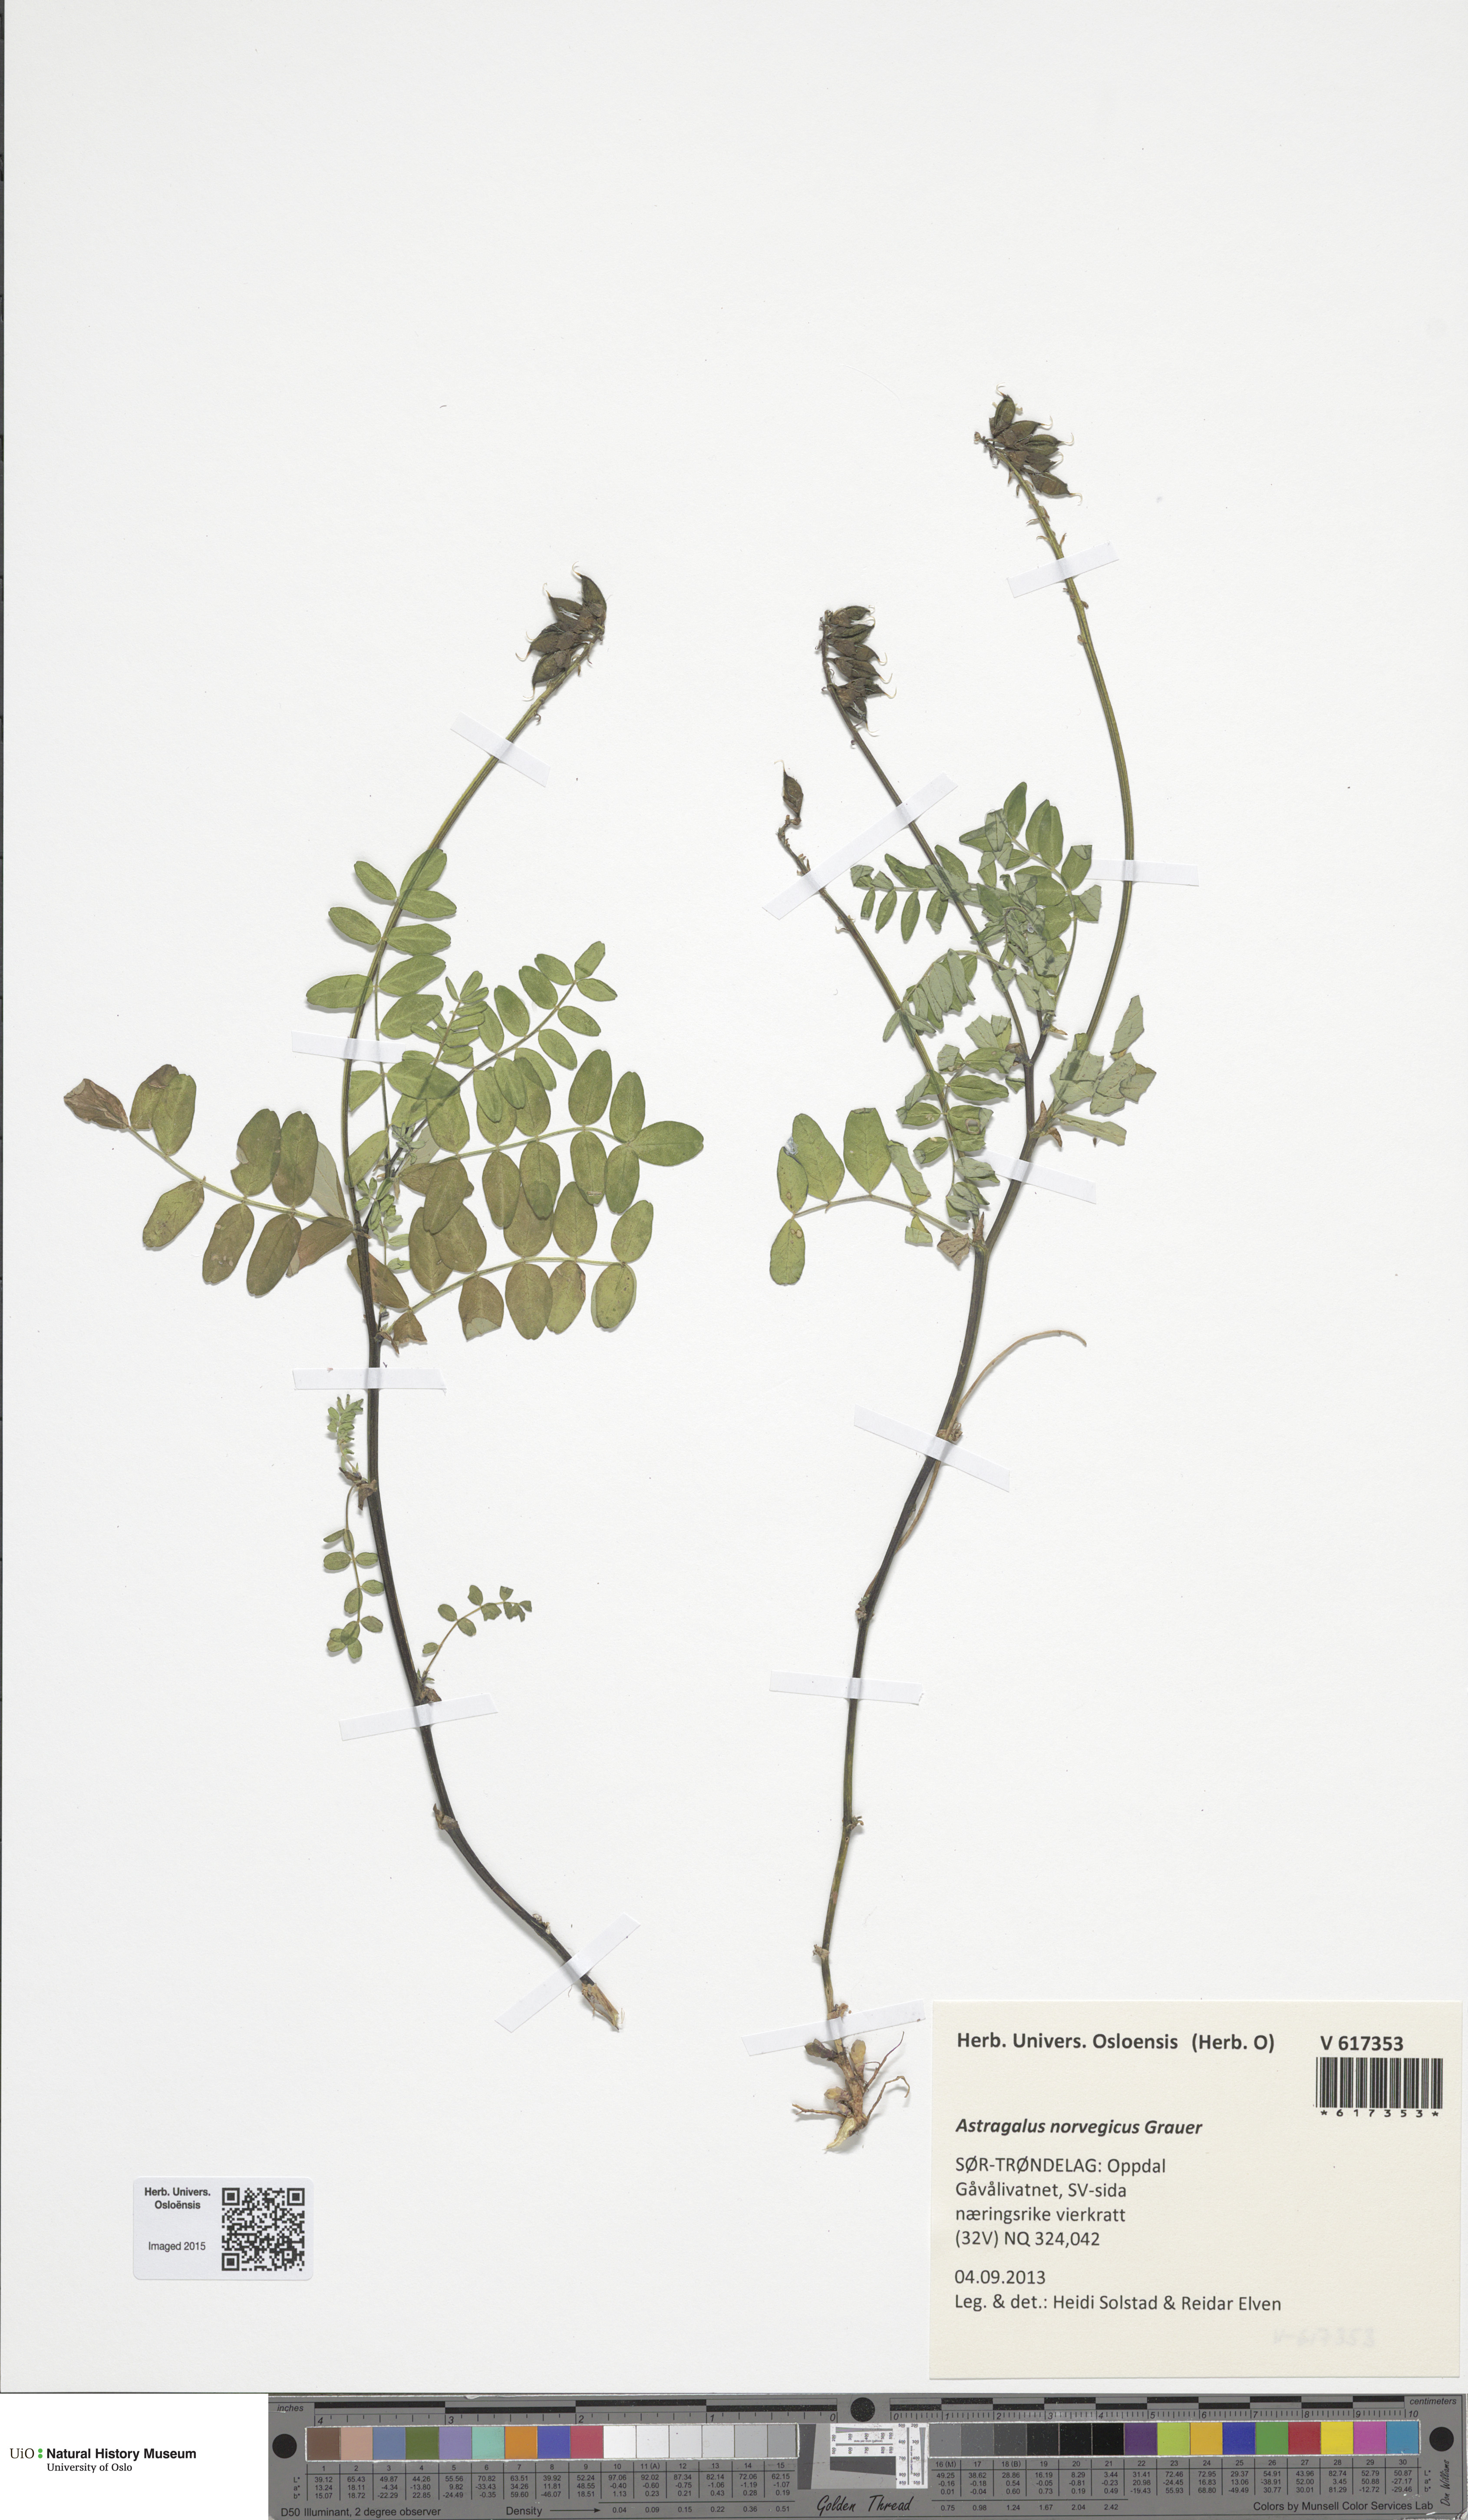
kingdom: Plantae
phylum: Tracheophyta
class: Magnoliopsida
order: Fabales
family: Fabaceae
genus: Astragalus
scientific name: Astragalus norvegicus
